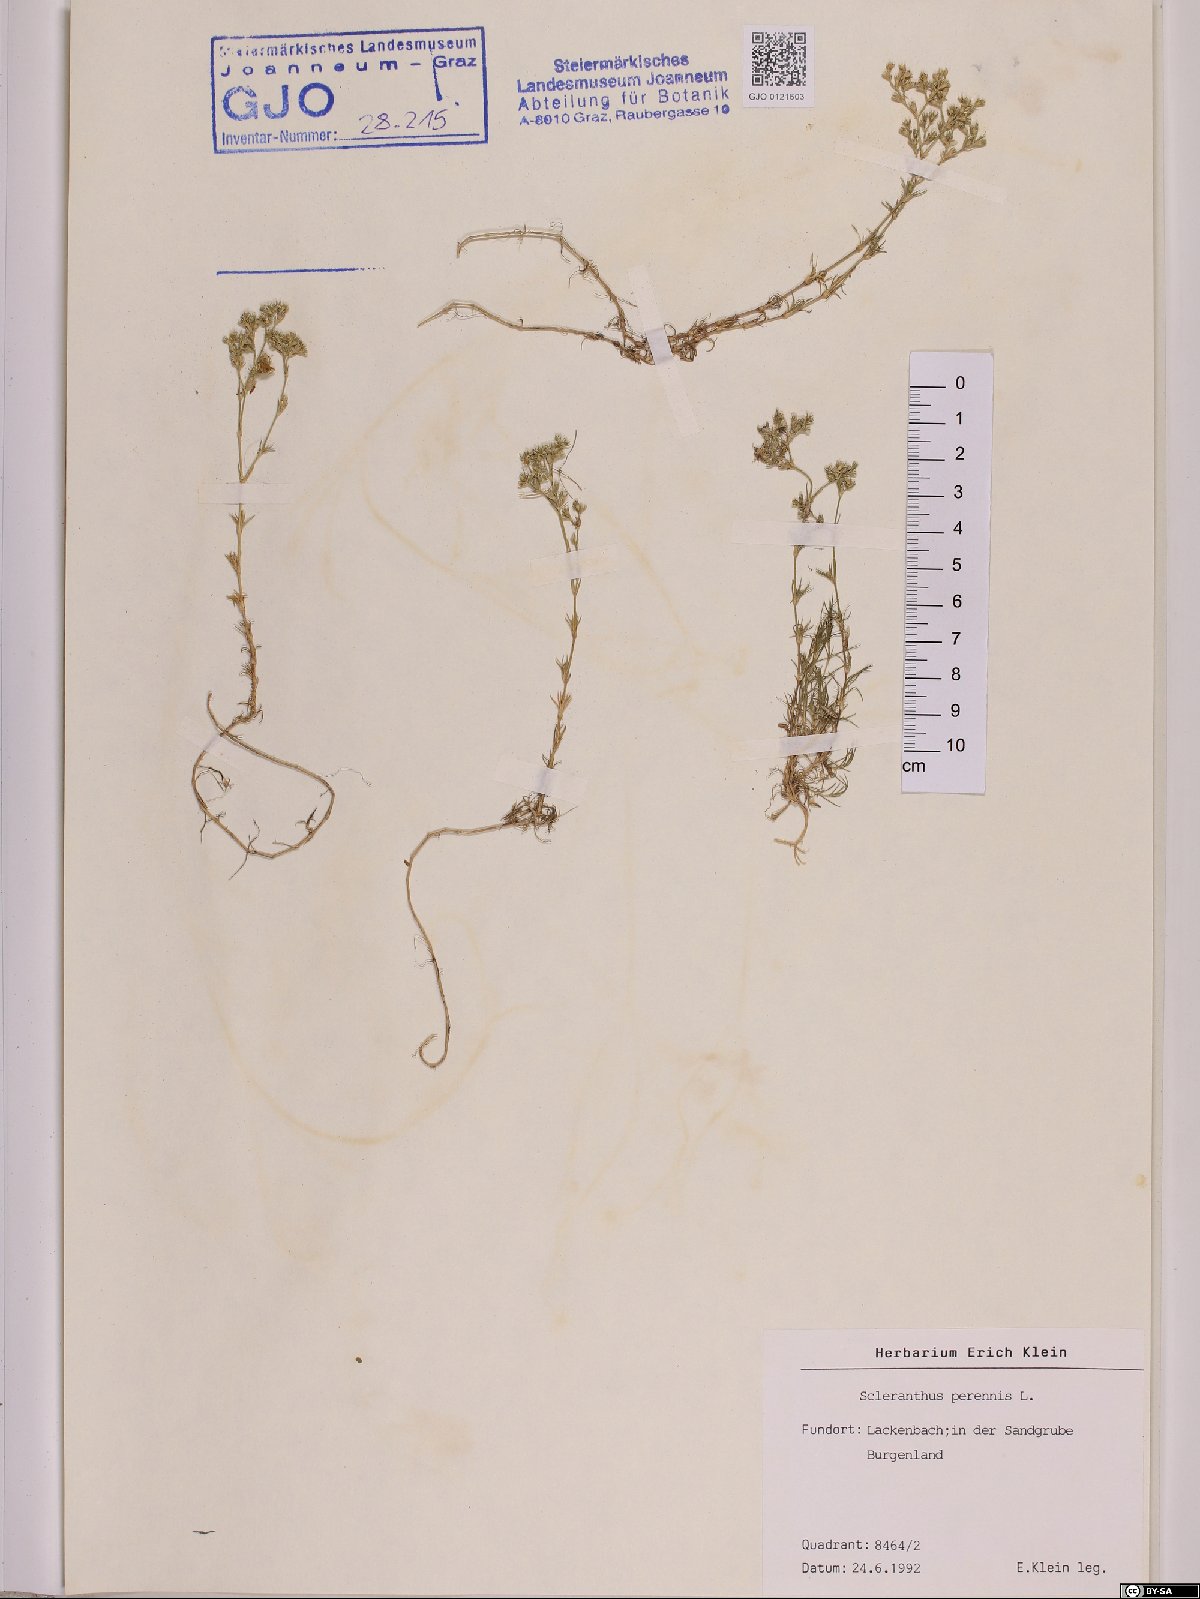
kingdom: Plantae
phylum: Tracheophyta
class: Magnoliopsida
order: Caryophyllales
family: Caryophyllaceae
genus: Scleranthus
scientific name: Scleranthus perennis
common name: Perennial knawel
